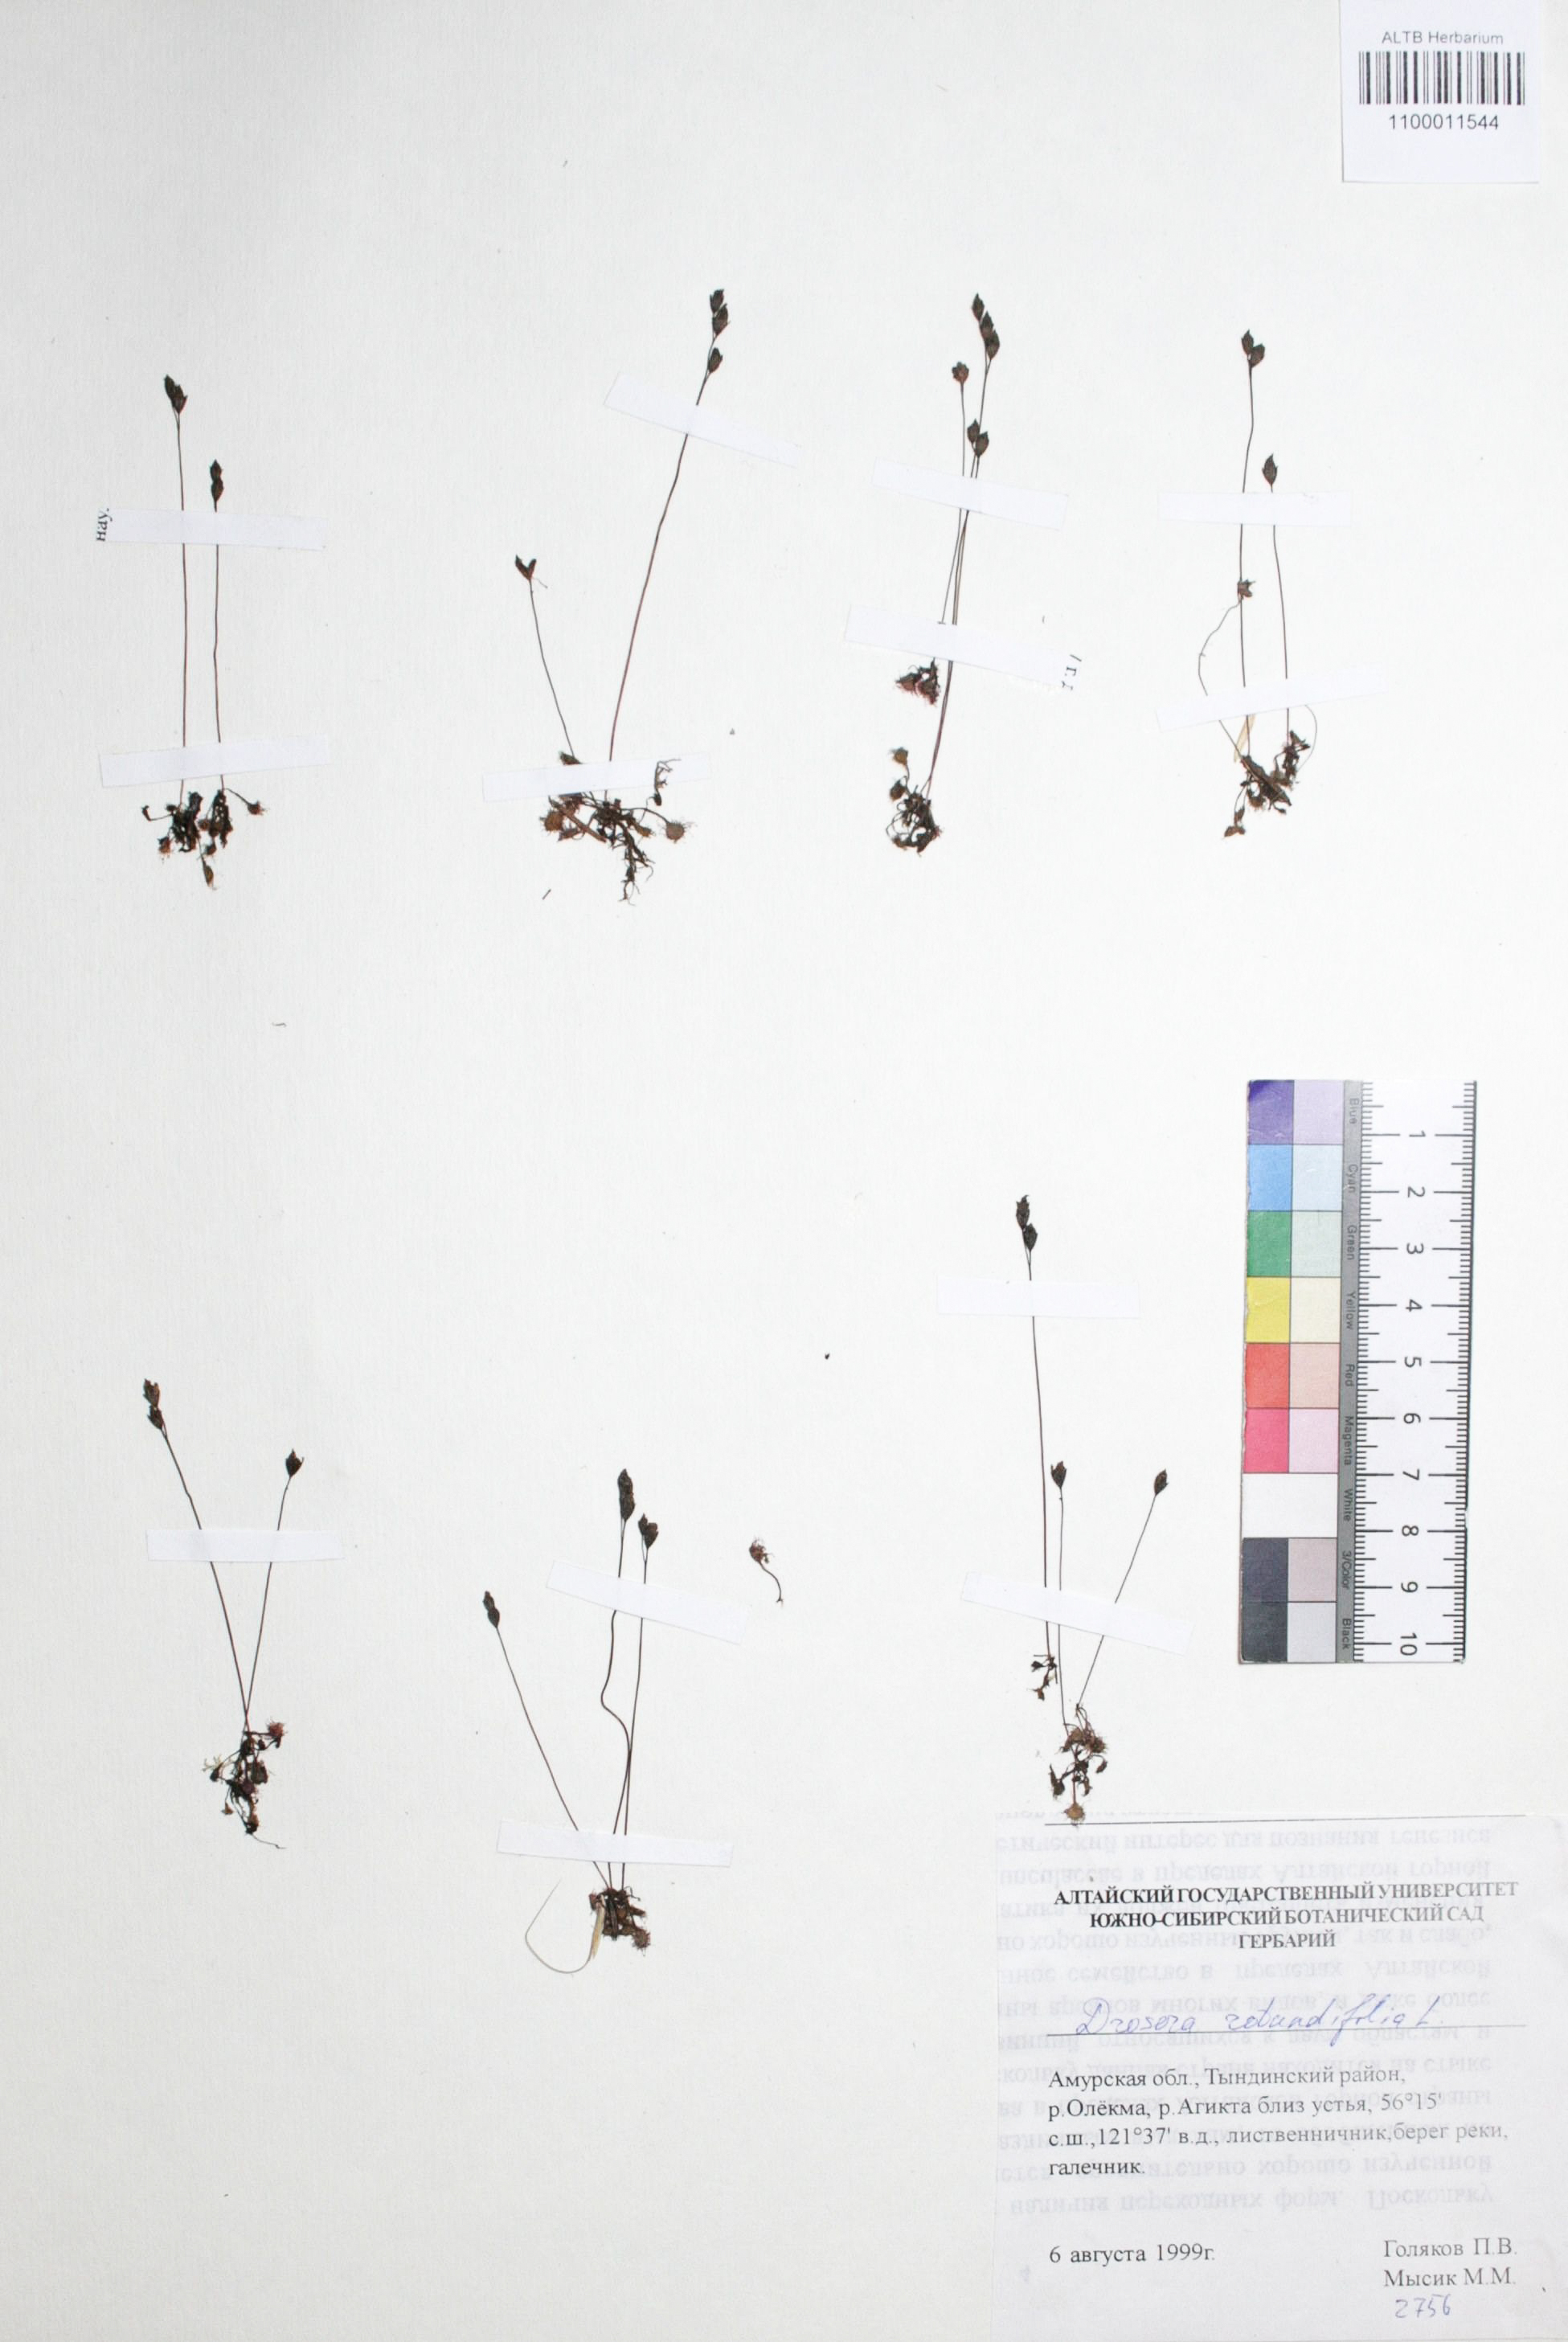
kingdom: Plantae
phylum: Tracheophyta
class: Magnoliopsida
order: Caryophyllales
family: Droseraceae
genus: Drosera
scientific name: Drosera rotundifolia
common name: Round-leaved sundew
